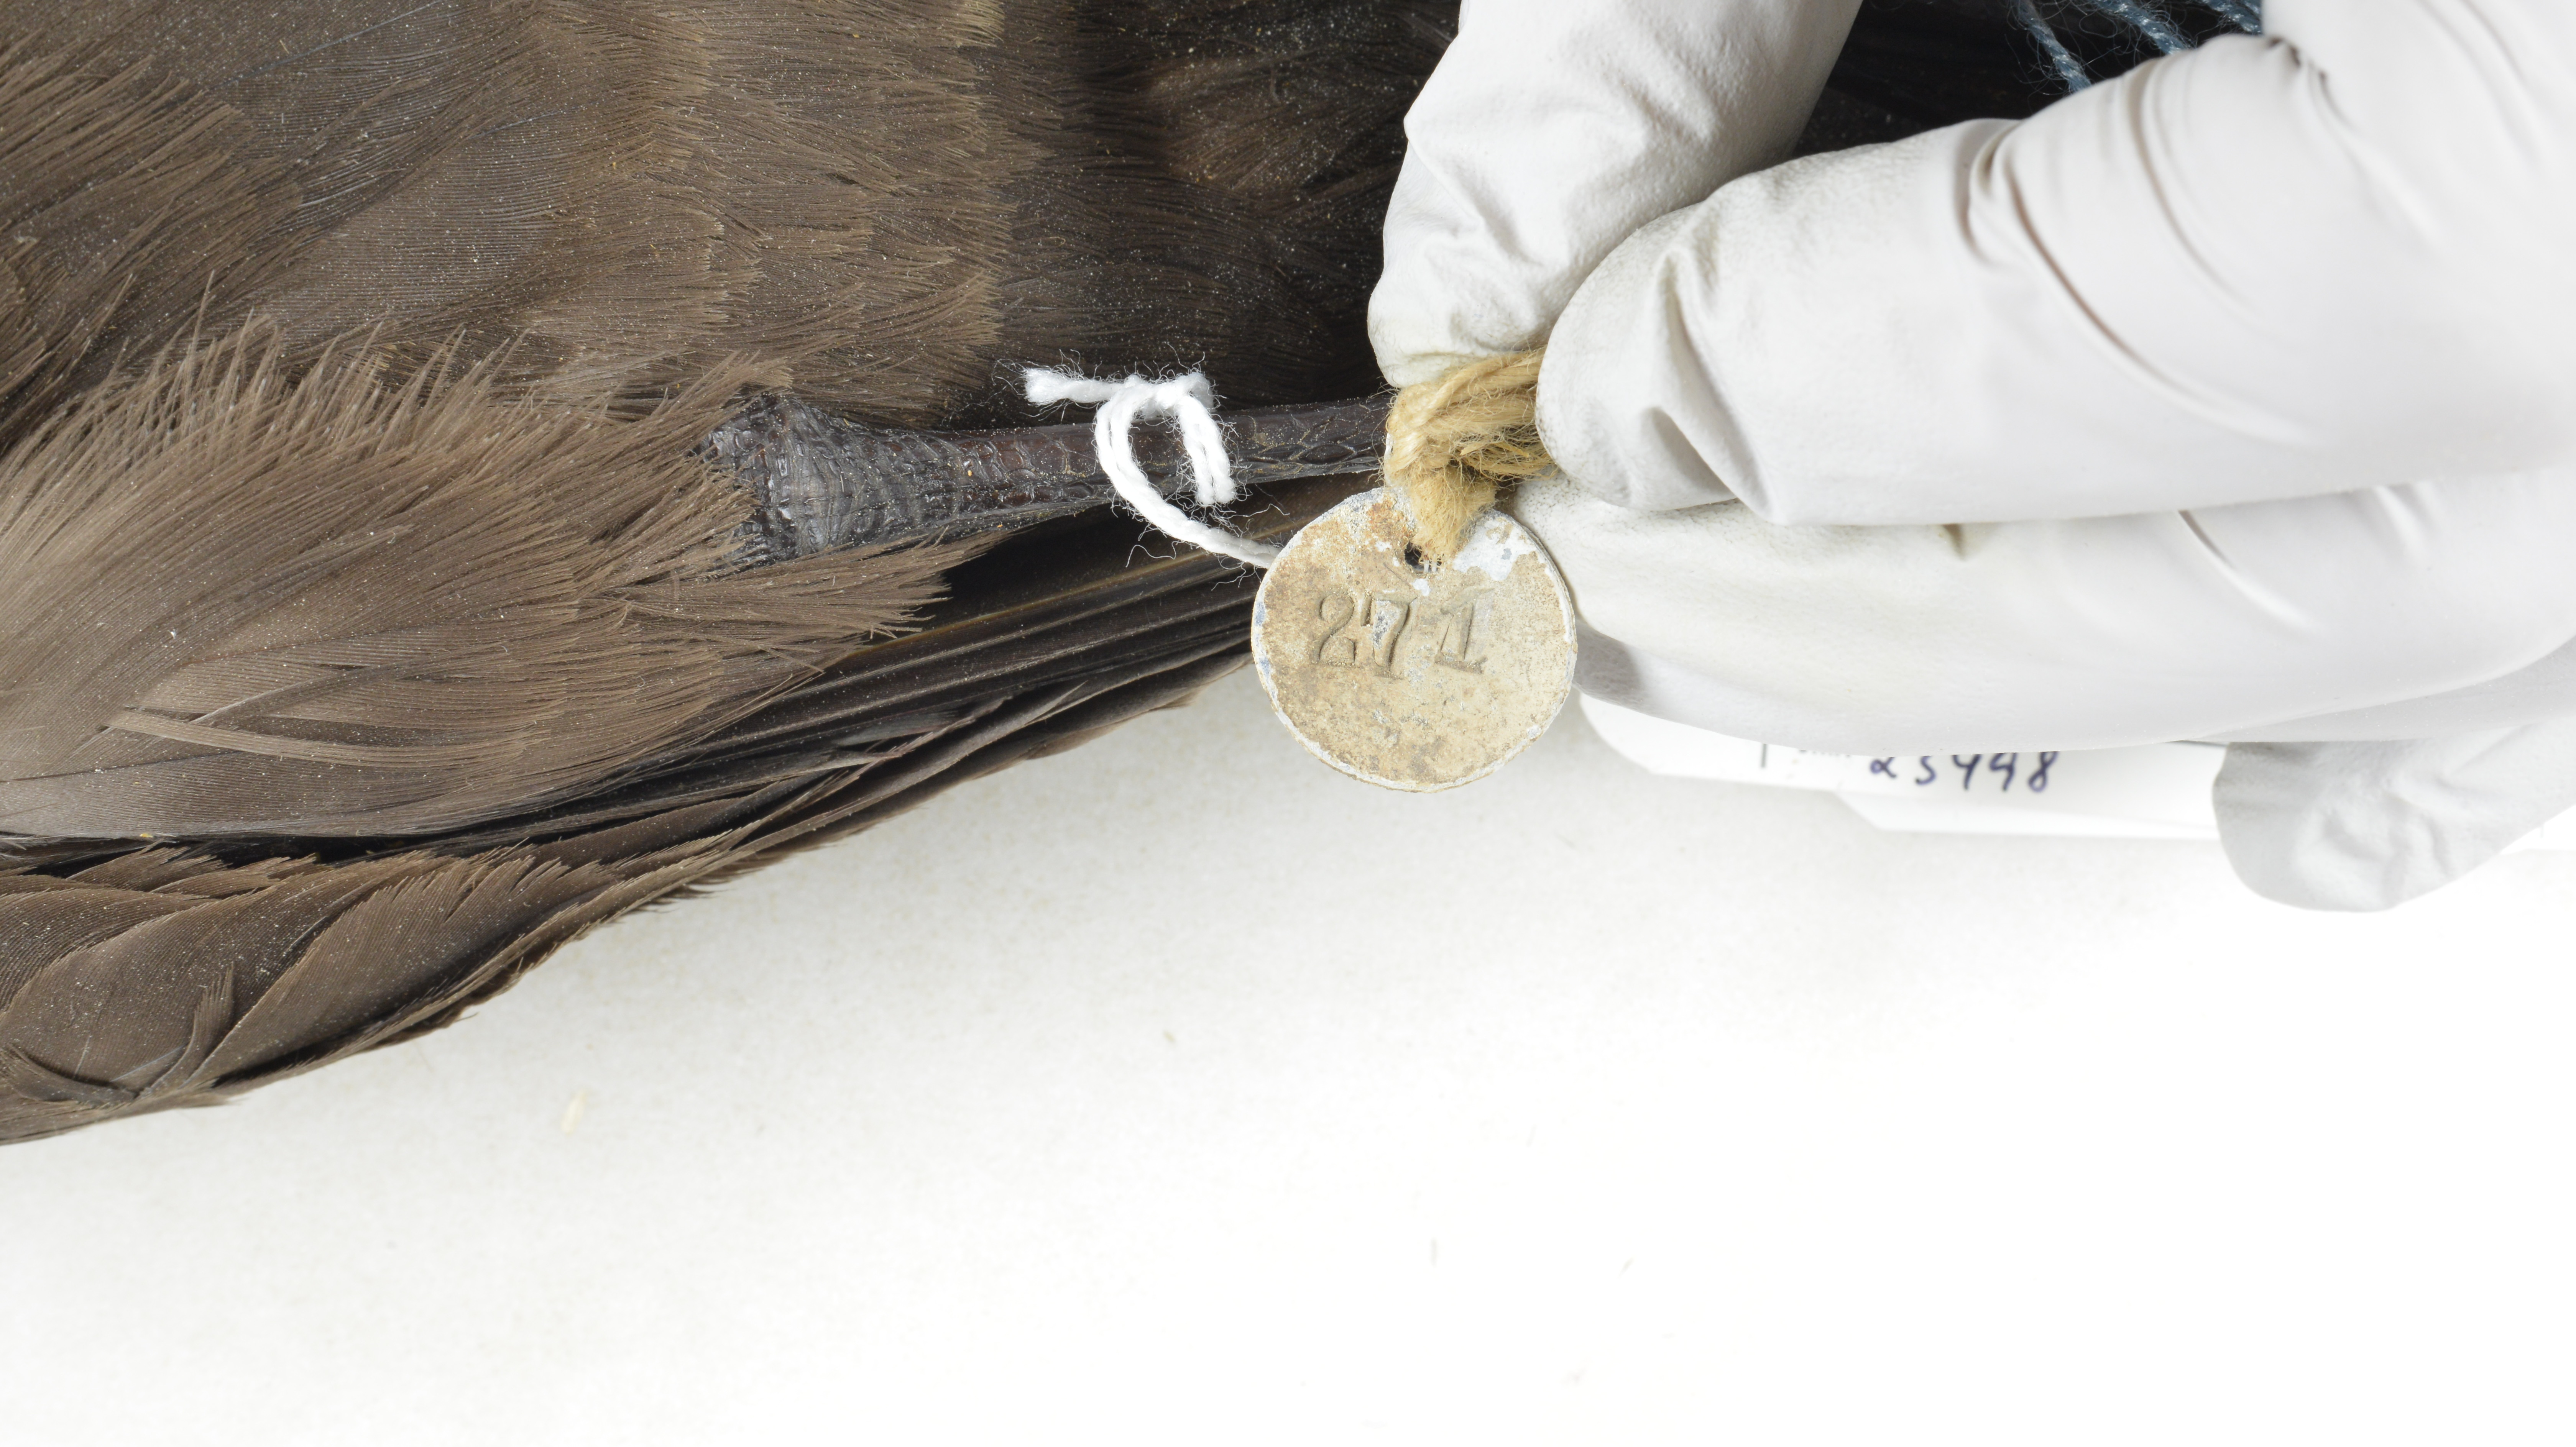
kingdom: Animalia
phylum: Chordata
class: Aves
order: Procellariiformes
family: Procellariidae
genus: Procellaria
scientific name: Procellaria conspicillata
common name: Spectacled petrel
